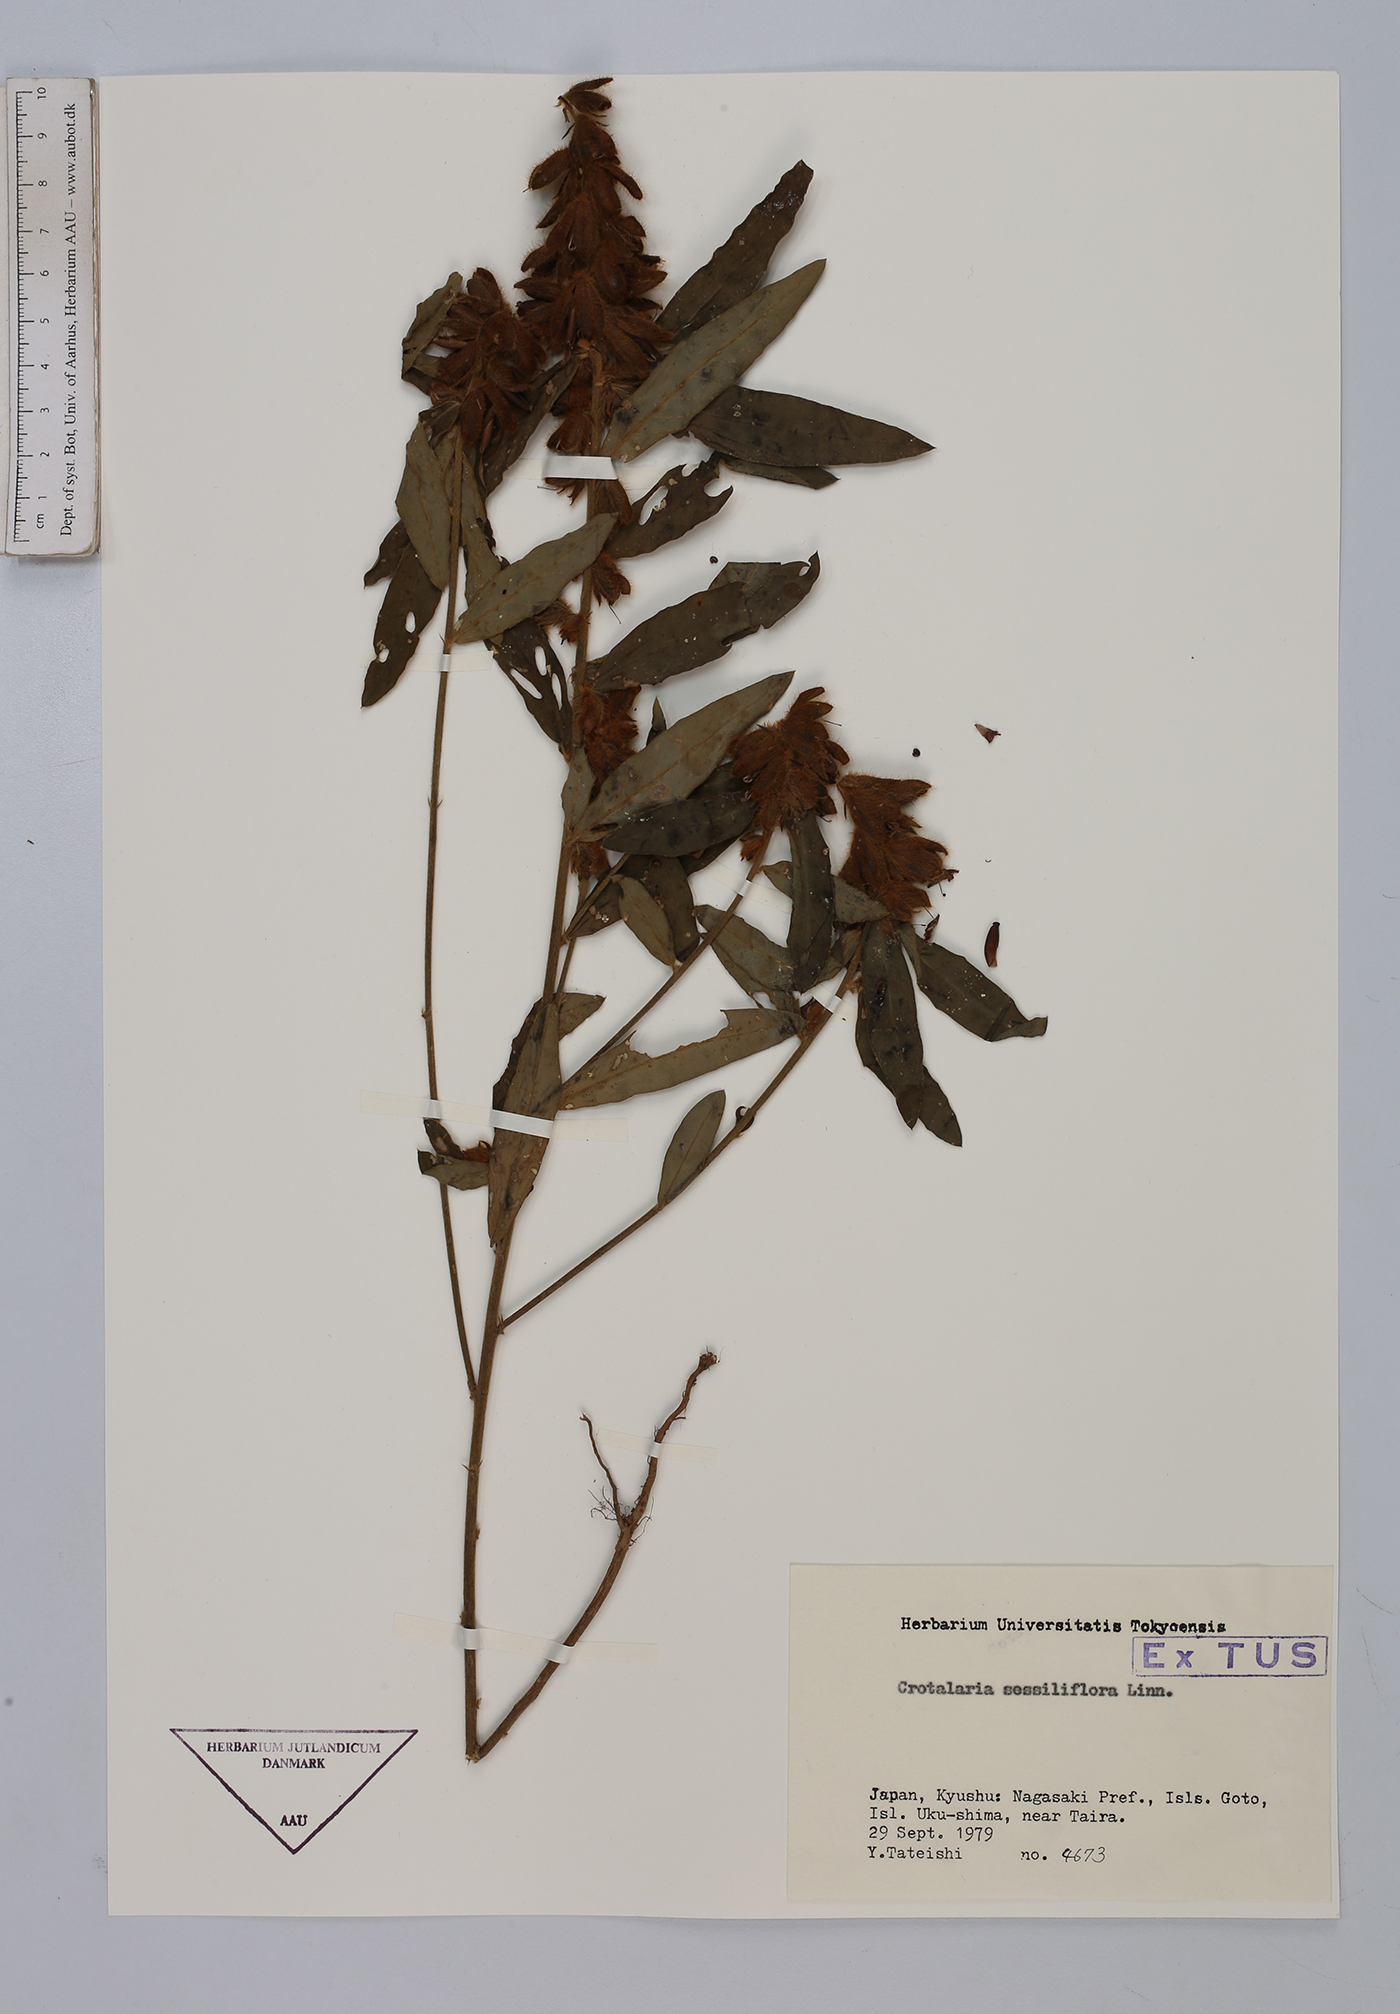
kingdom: Plantae
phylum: Tracheophyta
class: Magnoliopsida
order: Fabales
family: Fabaceae
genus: Crotalaria
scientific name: Crotalaria sessiliflora
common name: Rattlebox
